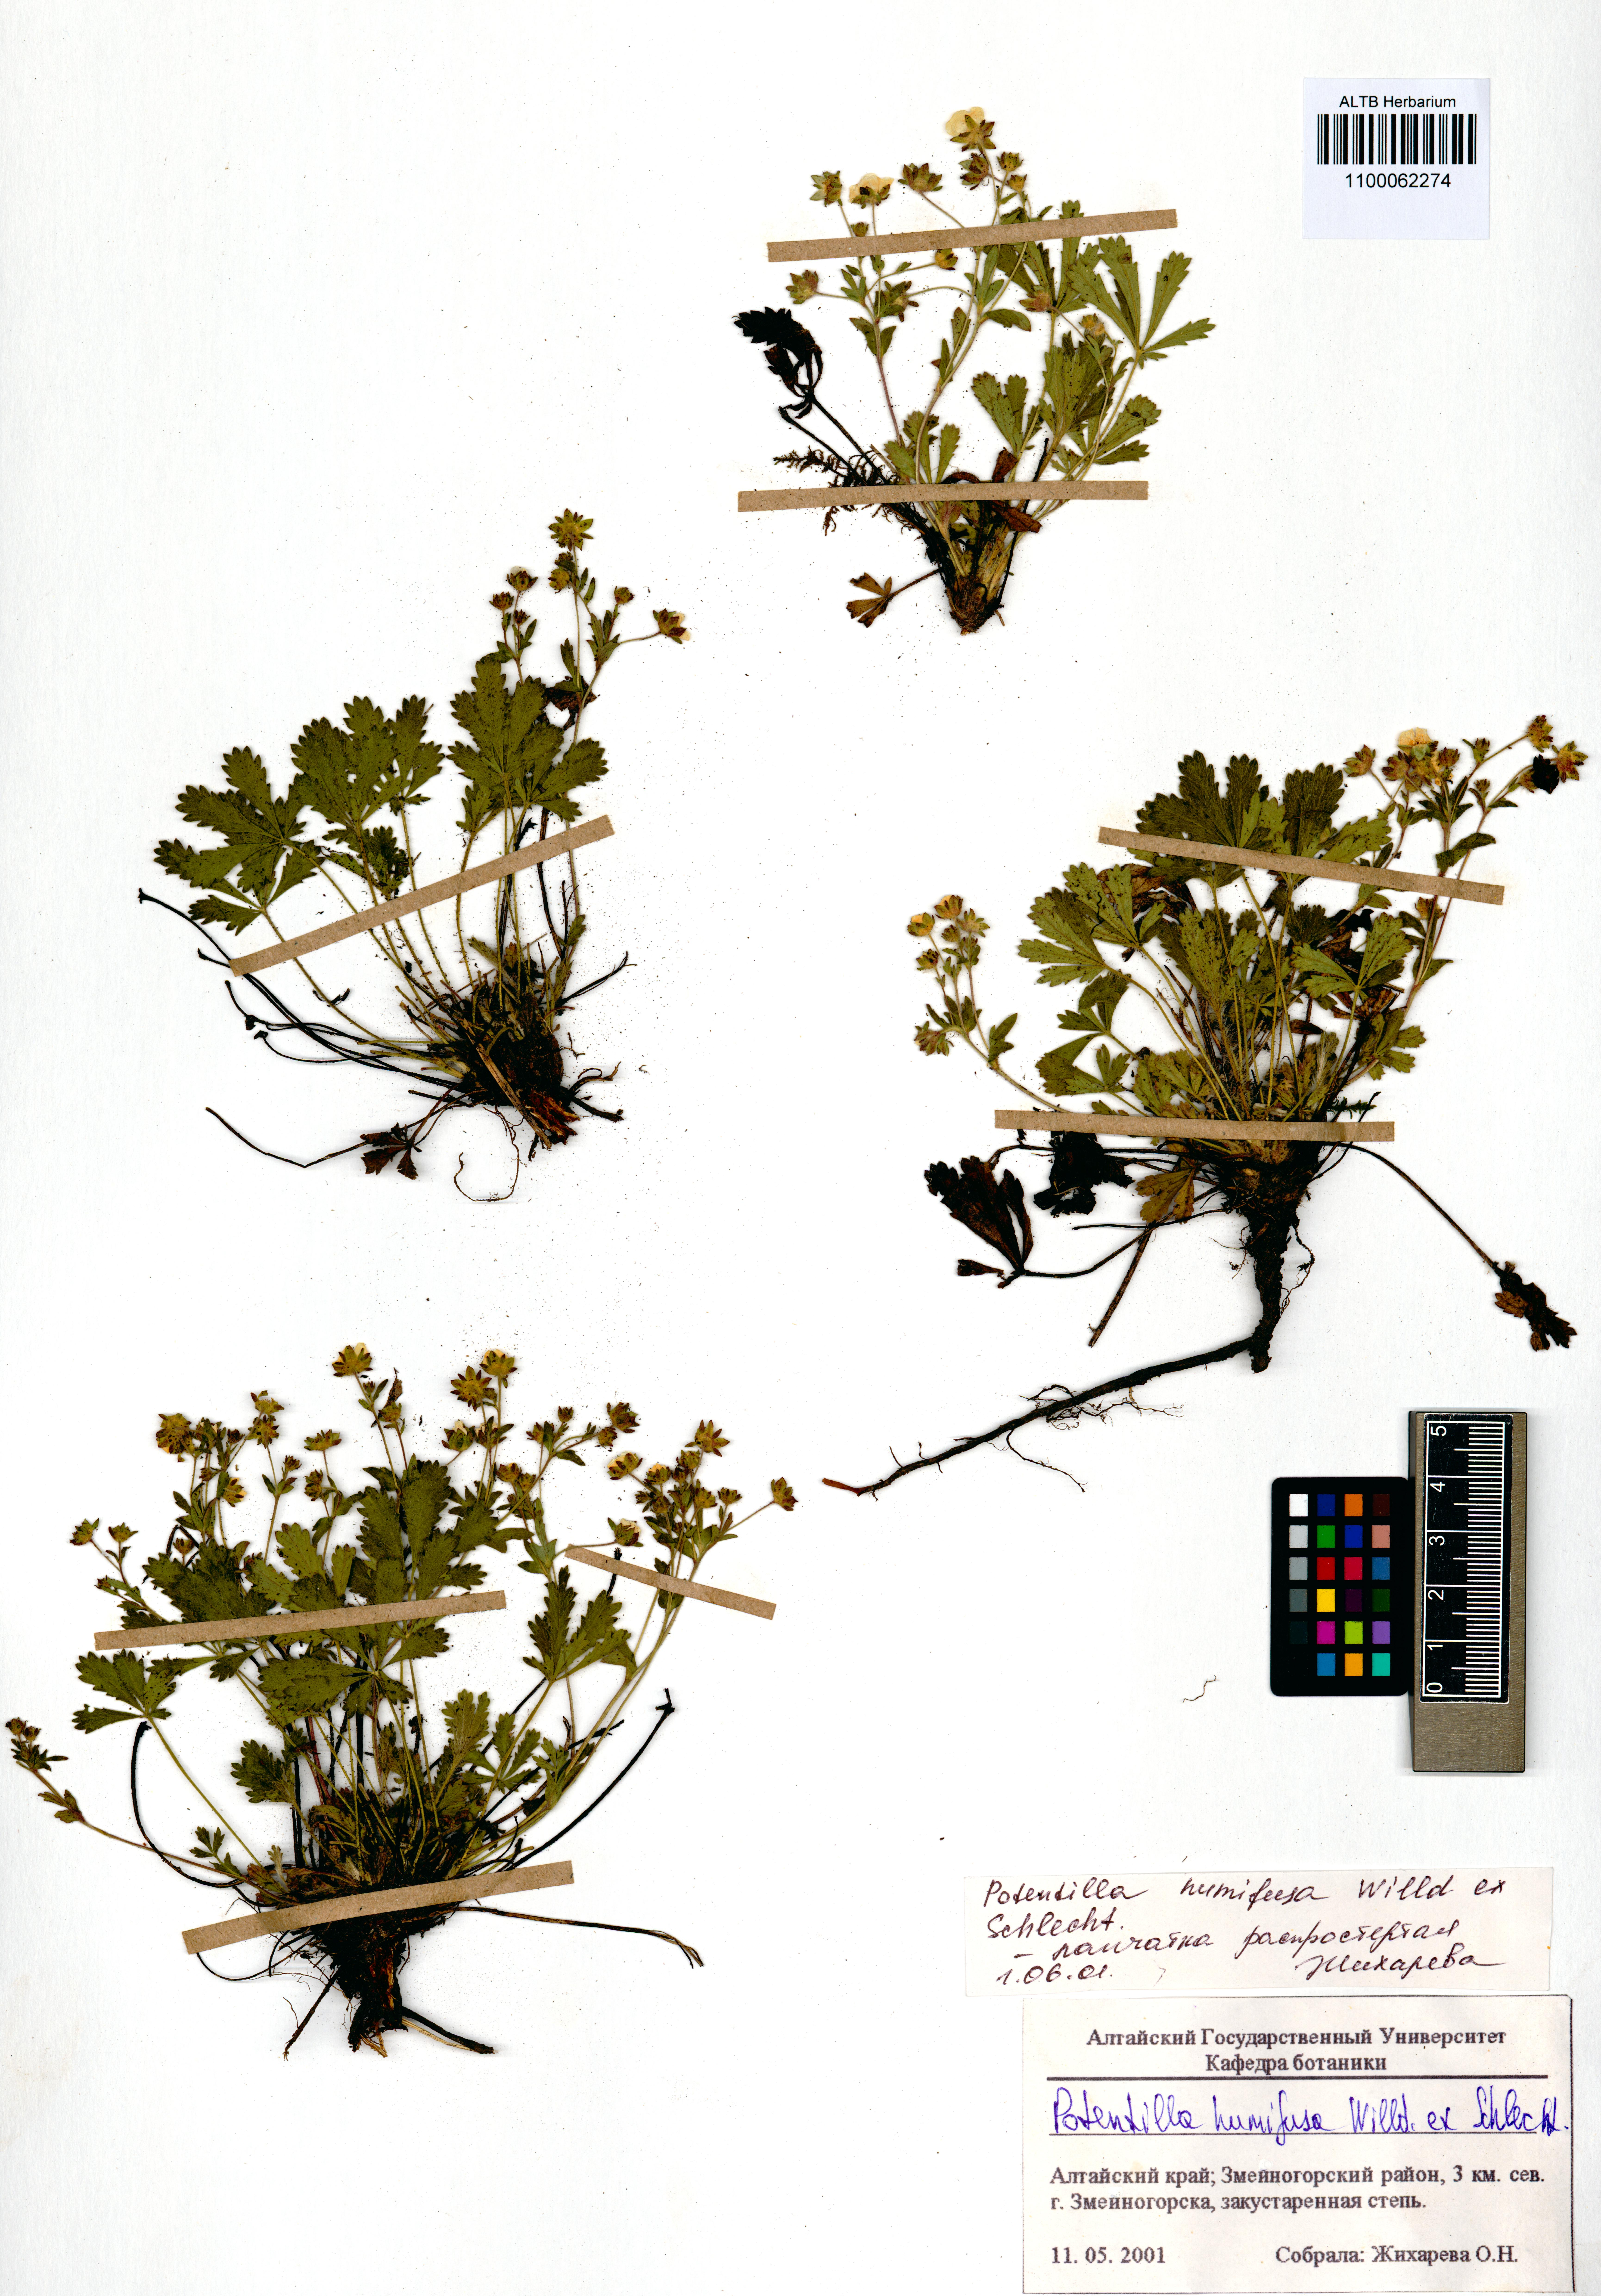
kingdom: Plantae
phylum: Tracheophyta
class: Magnoliopsida
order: Rosales
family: Rosaceae
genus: Potentilla
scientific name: Potentilla humifusa
